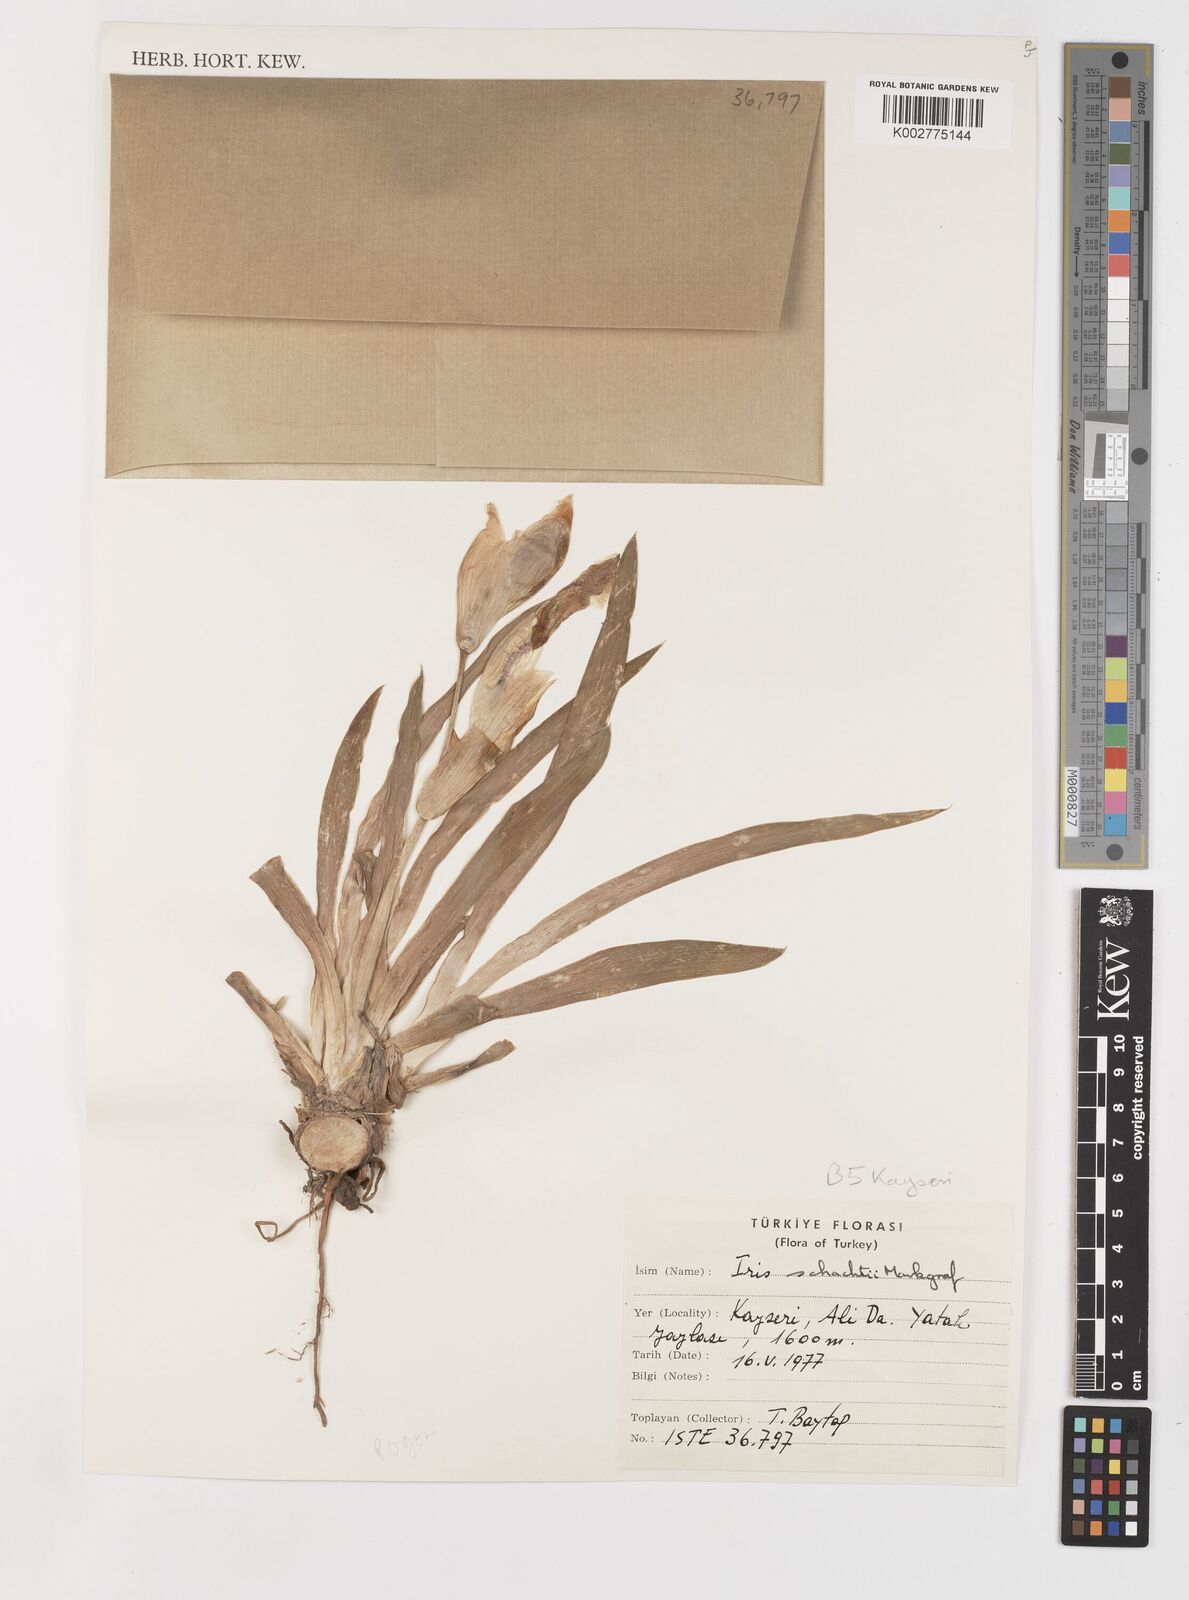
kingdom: Plantae
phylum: Tracheophyta
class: Liliopsida
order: Asparagales
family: Iridaceae
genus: Iris
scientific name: Iris schachtii
